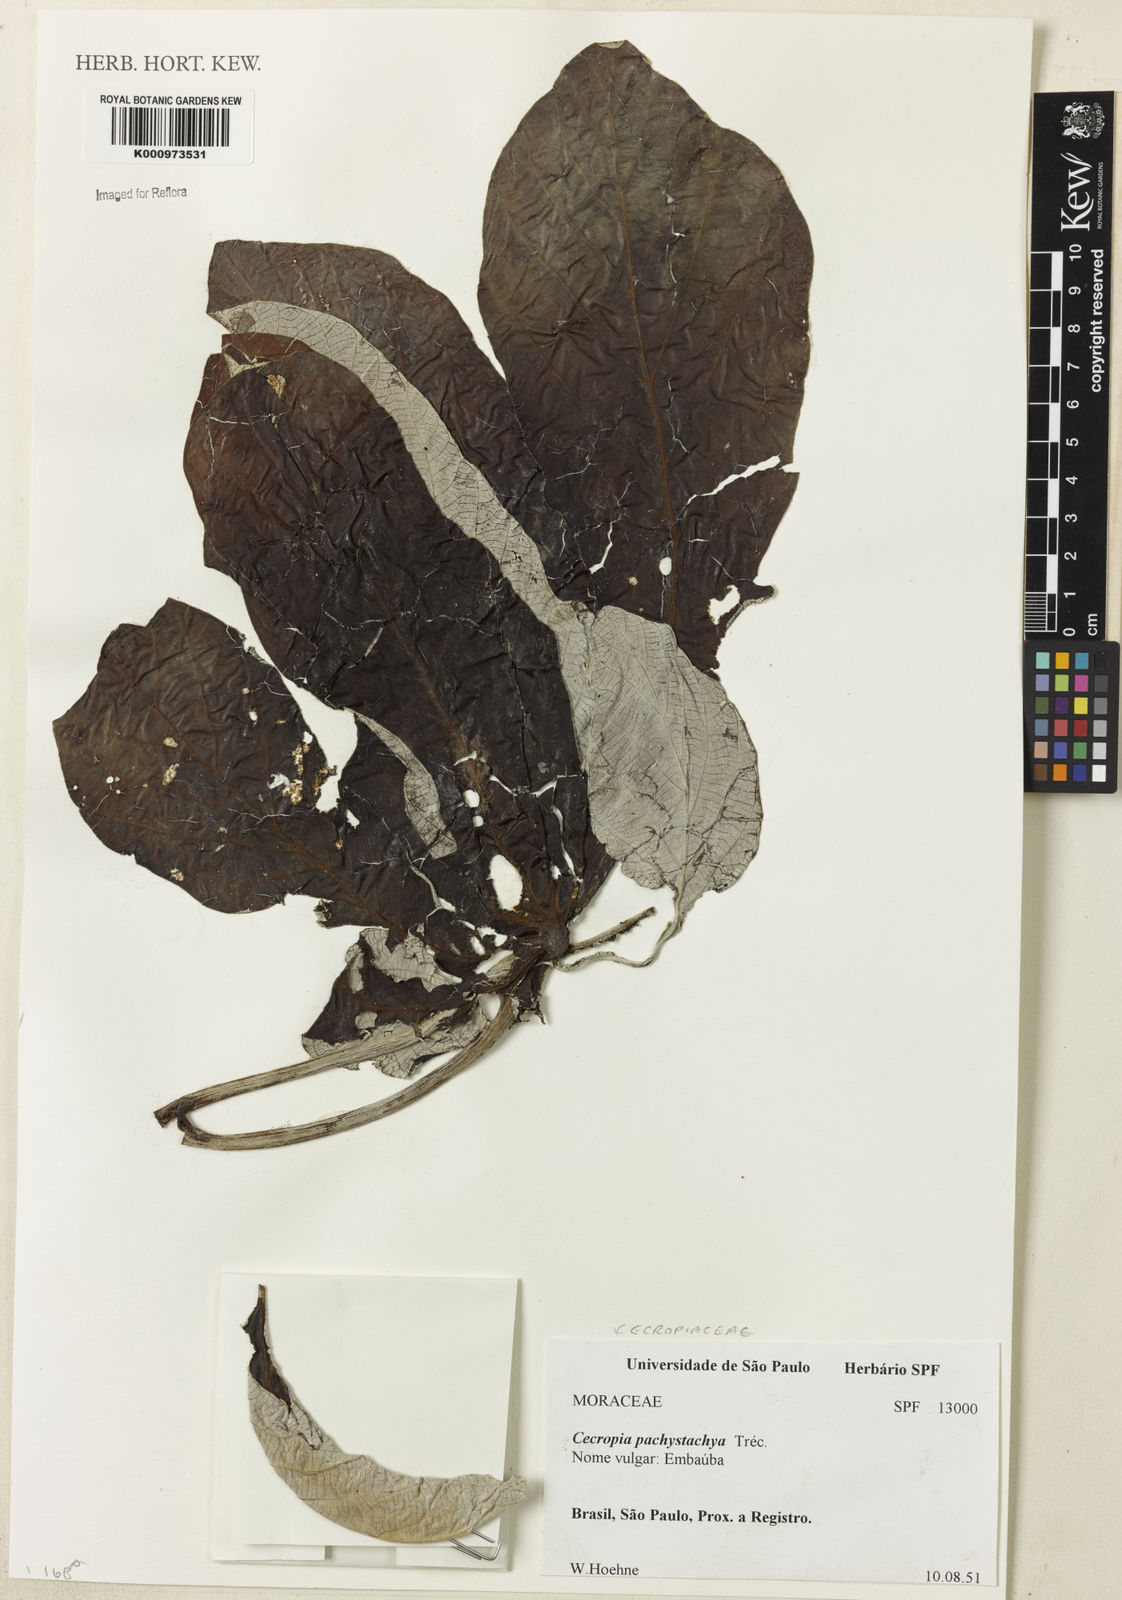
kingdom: Plantae
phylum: Tracheophyta
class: Magnoliopsida
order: Rosales
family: Urticaceae
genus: Cecropia
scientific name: Cecropia
